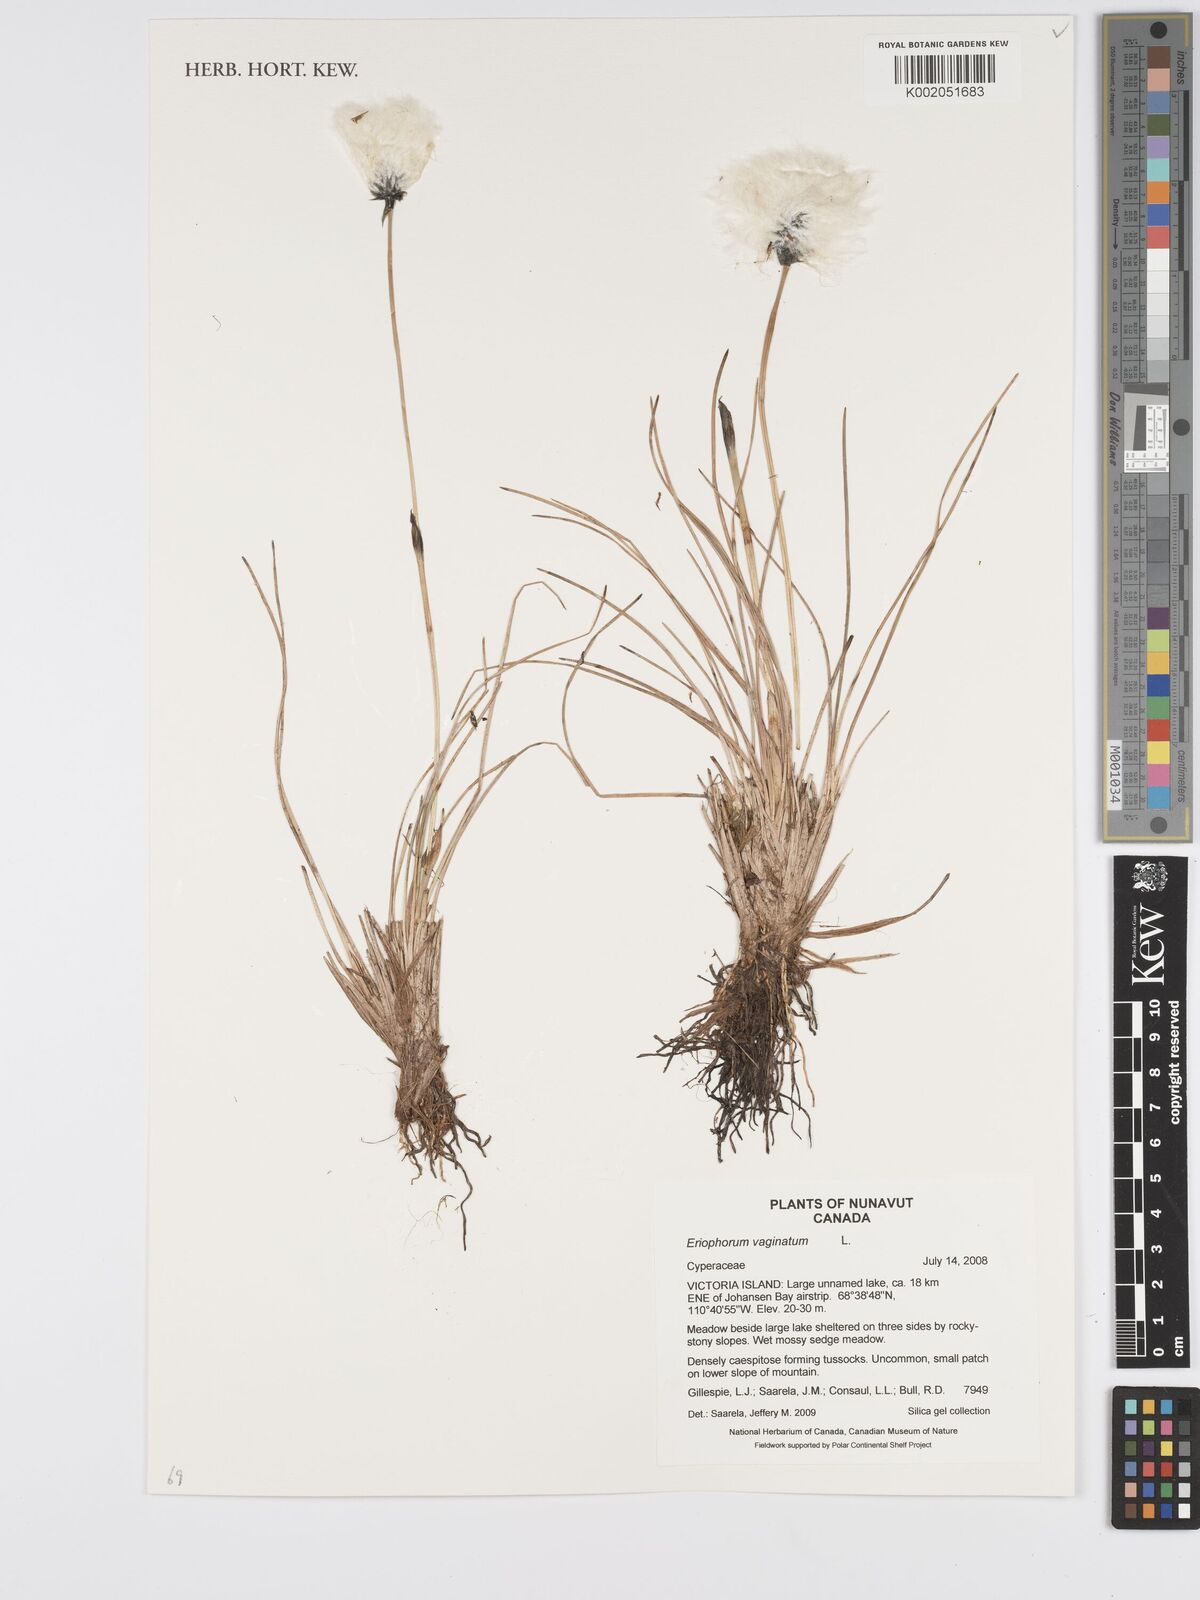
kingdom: Plantae
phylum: Tracheophyta
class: Liliopsida
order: Poales
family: Cyperaceae
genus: Eriophorum
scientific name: Eriophorum vaginatum
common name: Hare's-tail cottongrass
